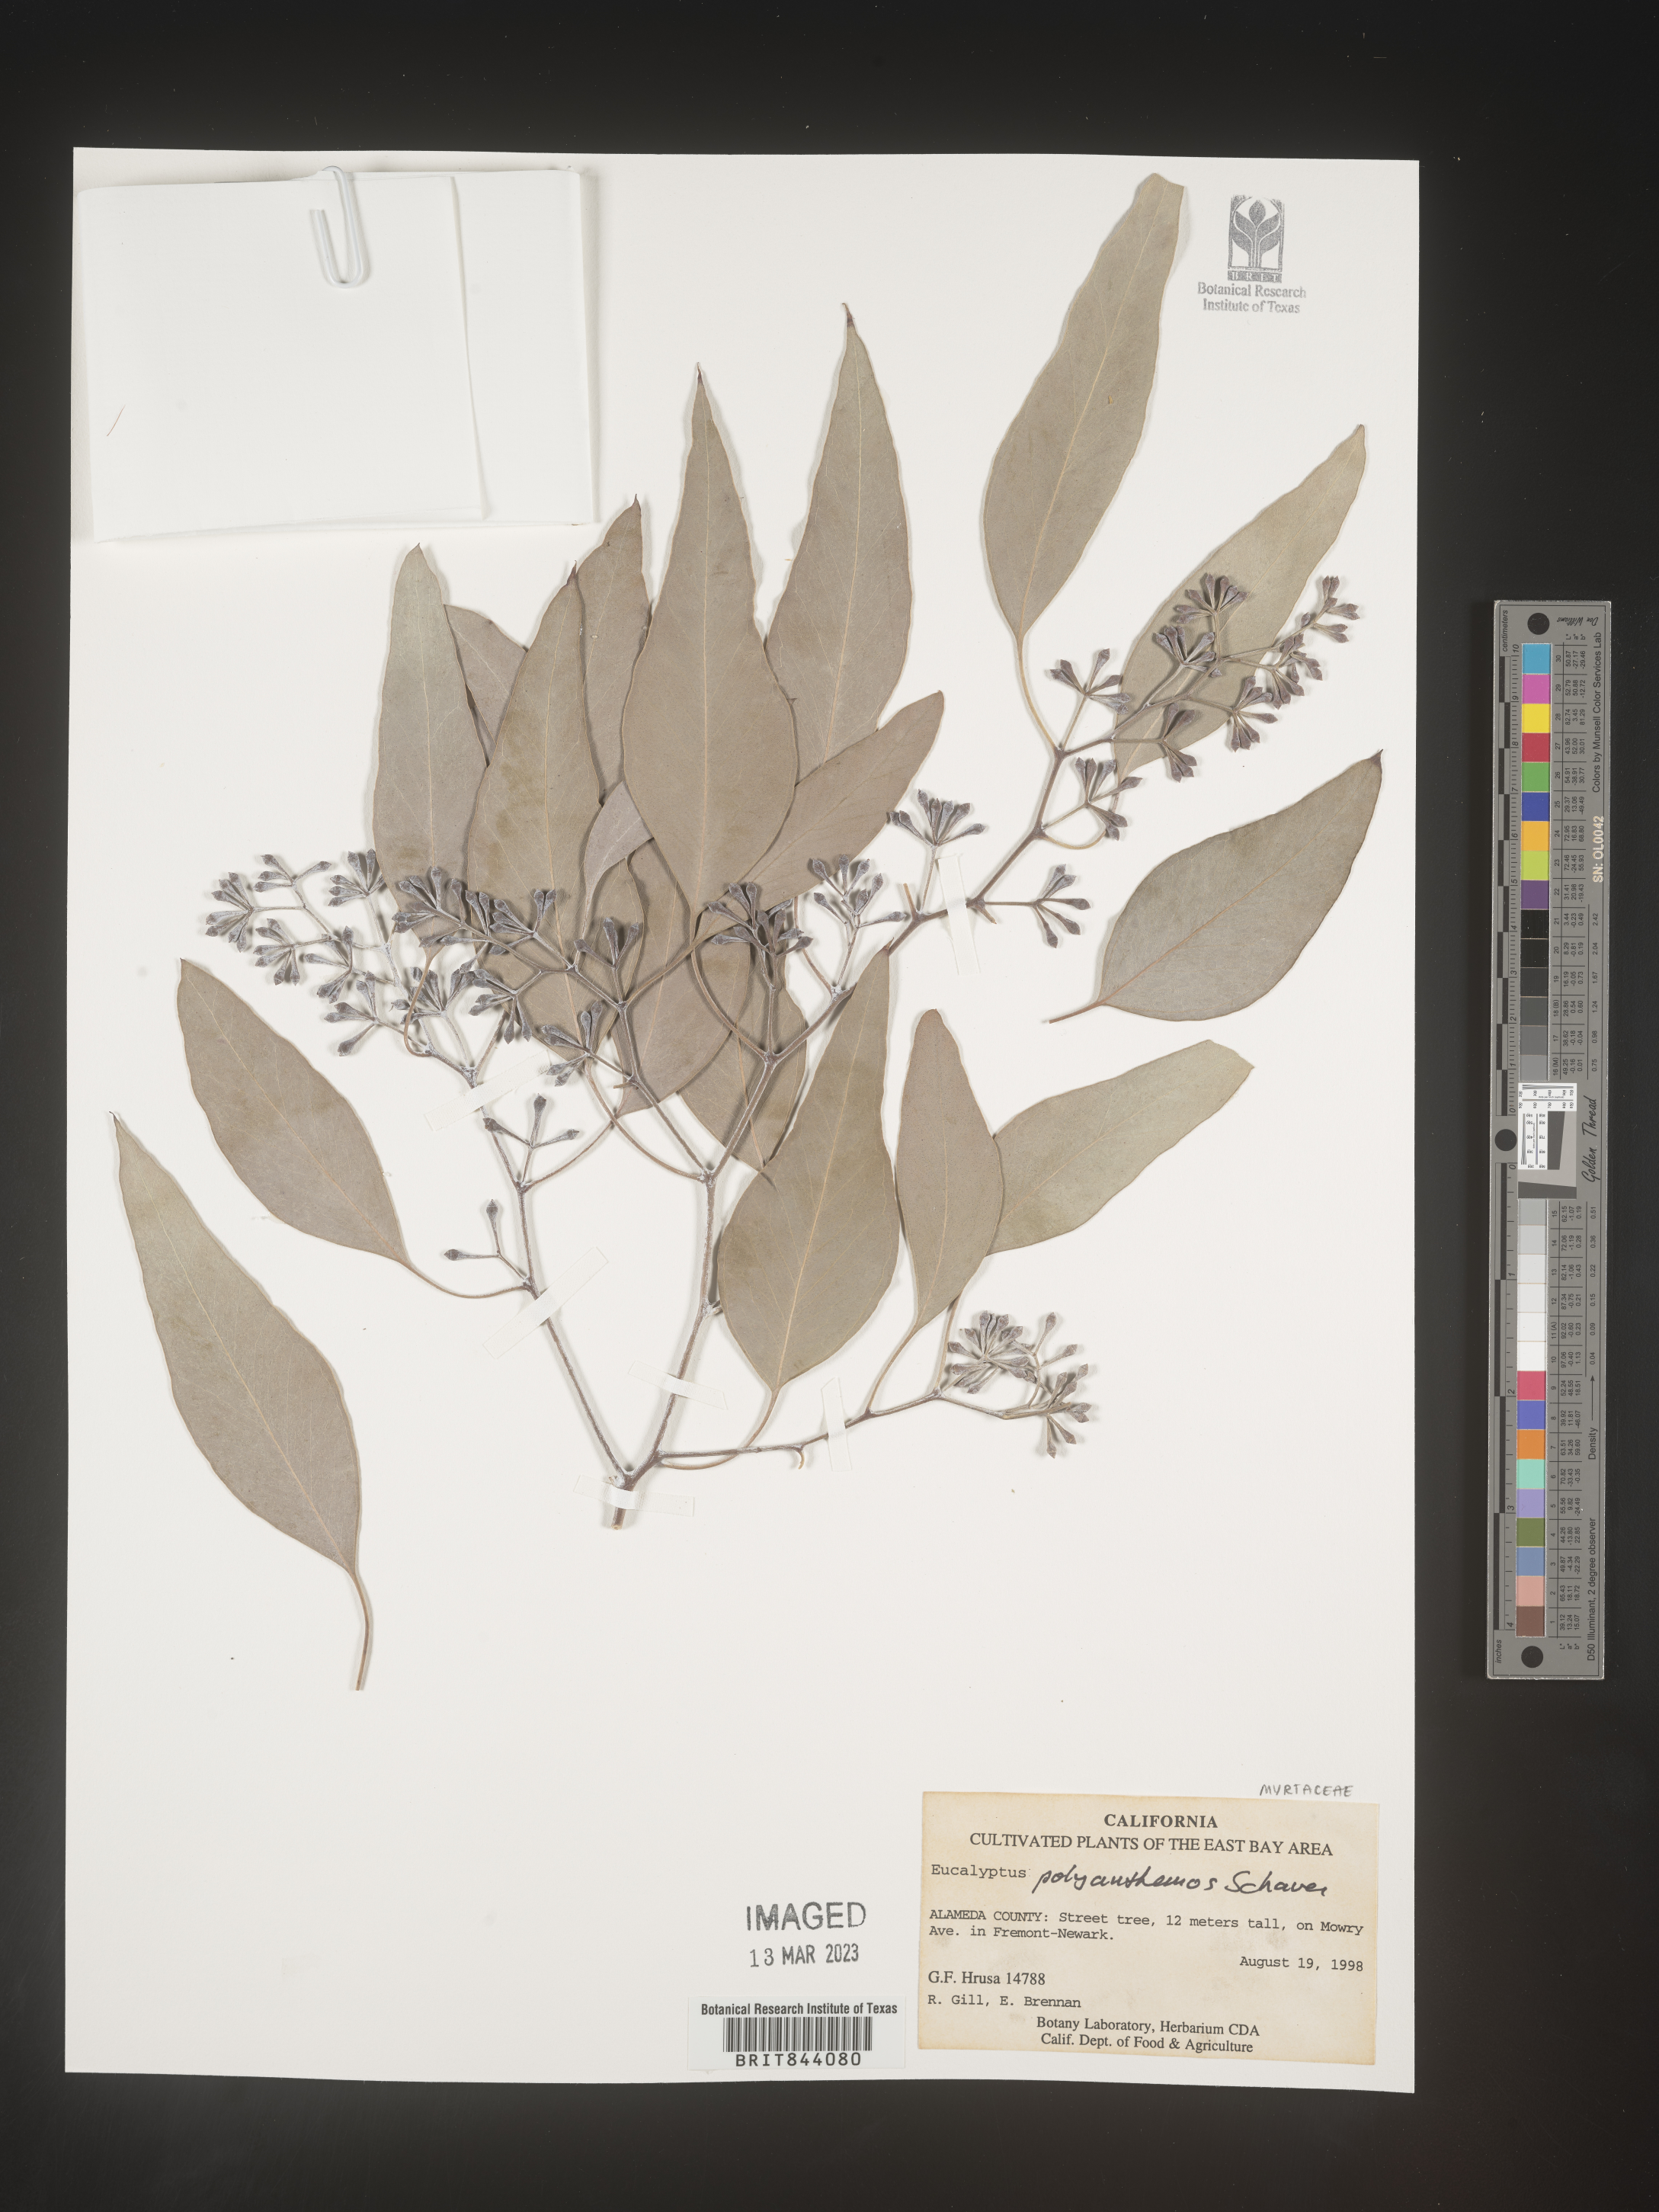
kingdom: Plantae
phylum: Tracheophyta
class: Magnoliopsida
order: Myrtales
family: Myrtaceae
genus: Eucalyptus
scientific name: Eucalyptus polyanthemos
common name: Red-box
